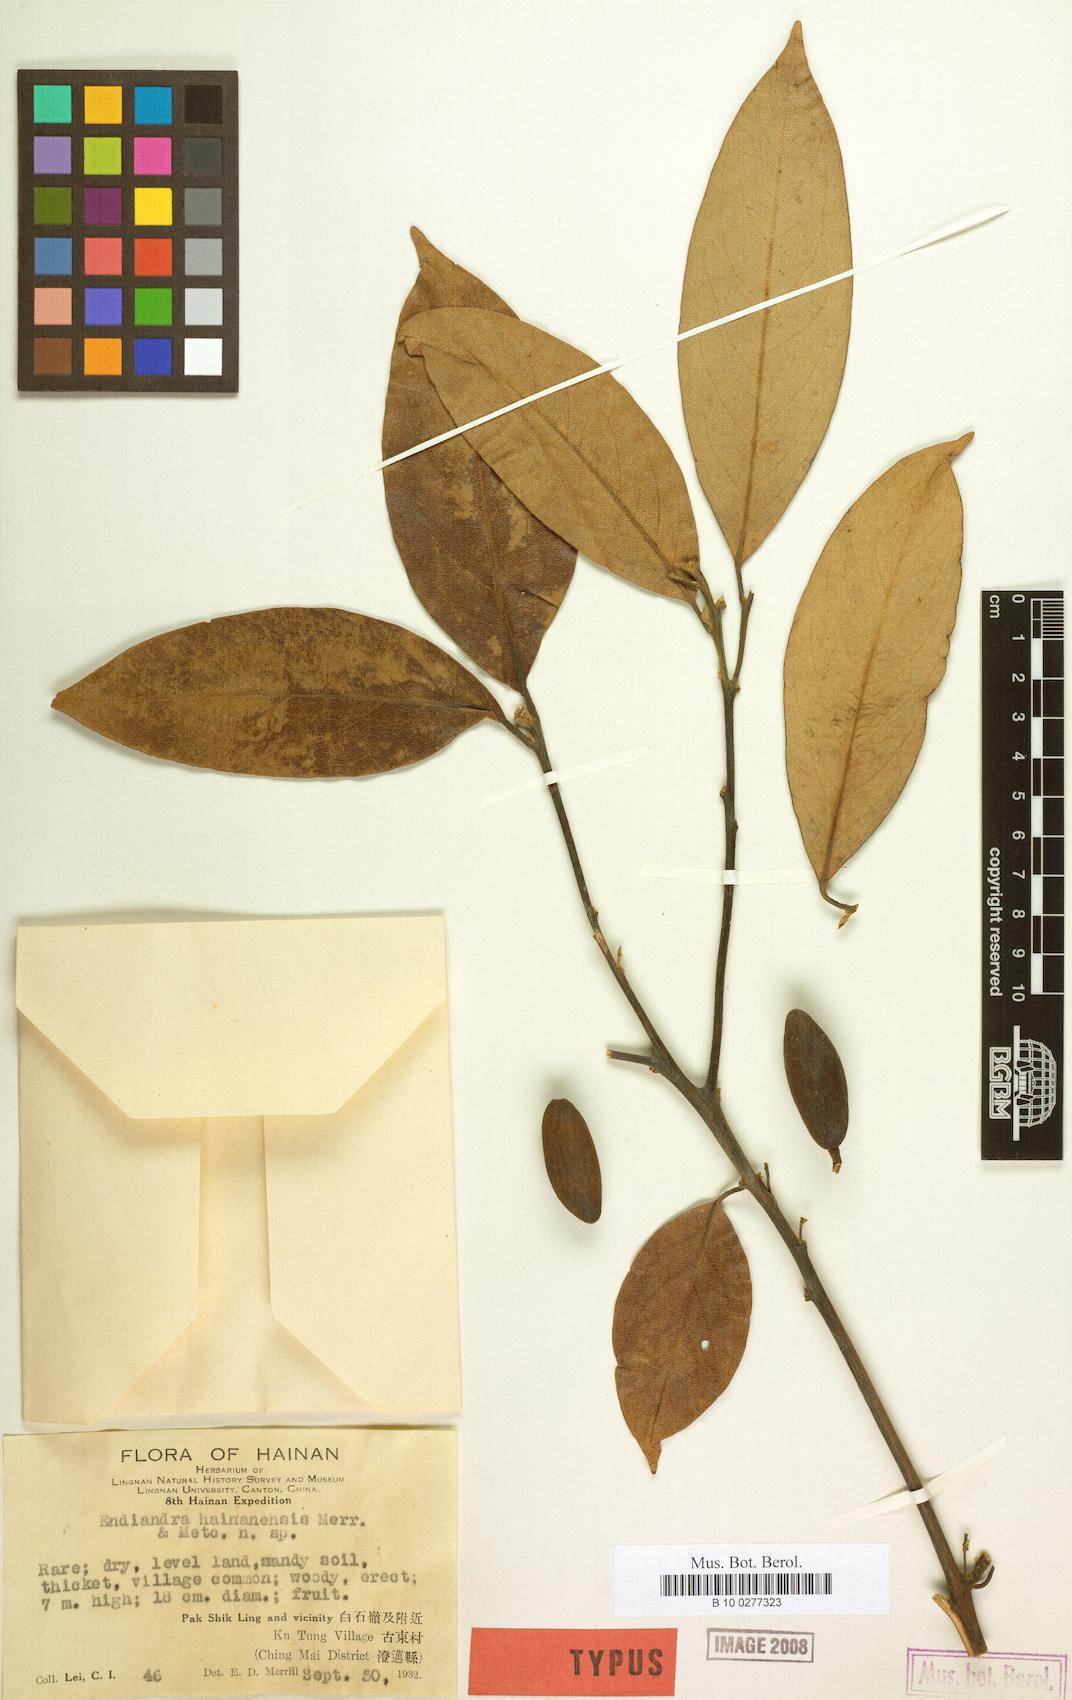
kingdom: Plantae
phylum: Tracheophyta
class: Magnoliopsida
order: Laurales
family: Lauraceae
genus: Endiandra
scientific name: Endiandra hainanensis
